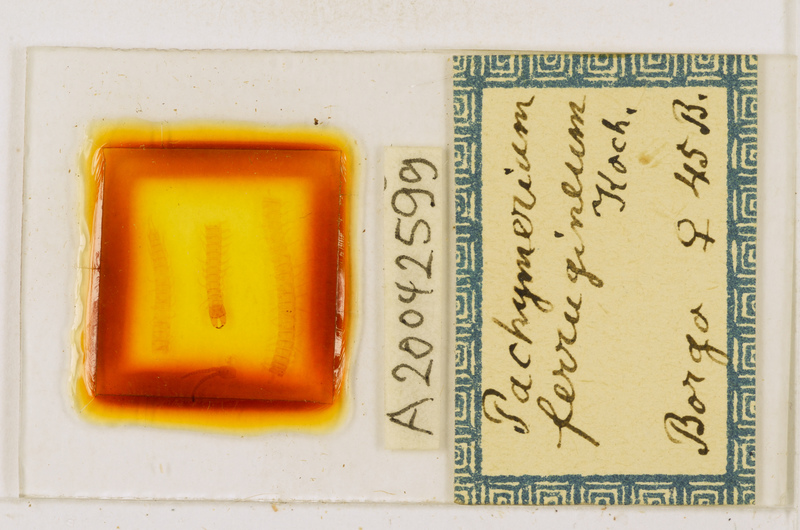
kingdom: Animalia
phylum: Arthropoda
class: Chilopoda
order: Geophilomorpha
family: Geophilidae
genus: Pachymerium
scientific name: Pachymerium ferrugineum
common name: Centipede
